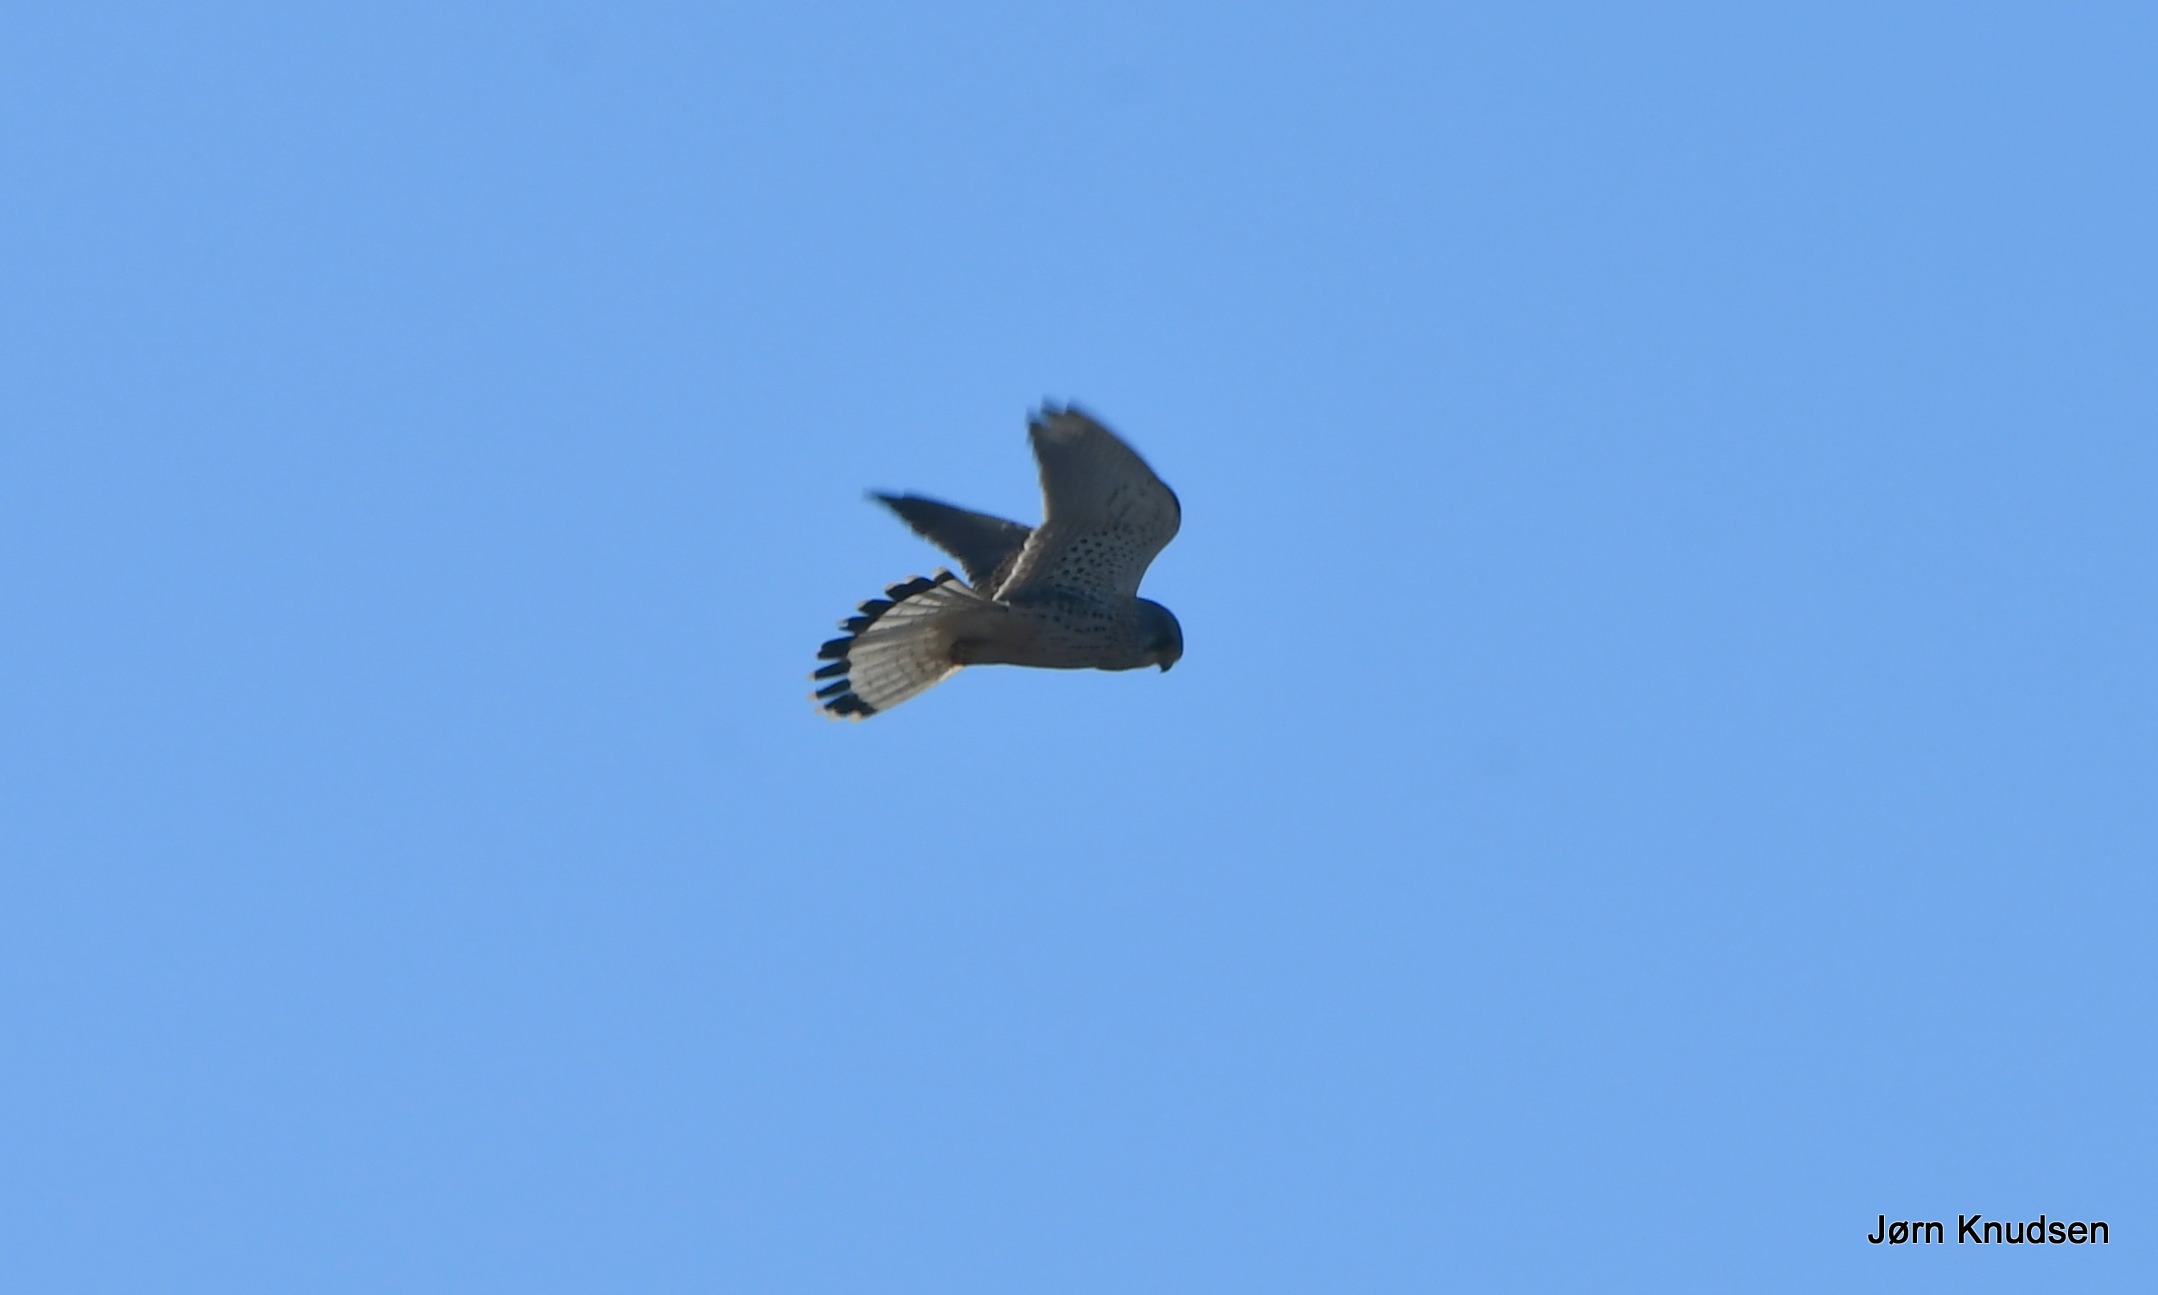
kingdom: Animalia
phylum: Chordata
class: Aves
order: Falconiformes
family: Falconidae
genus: Falco
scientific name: Falco tinnunculus
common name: Tårnfalk
